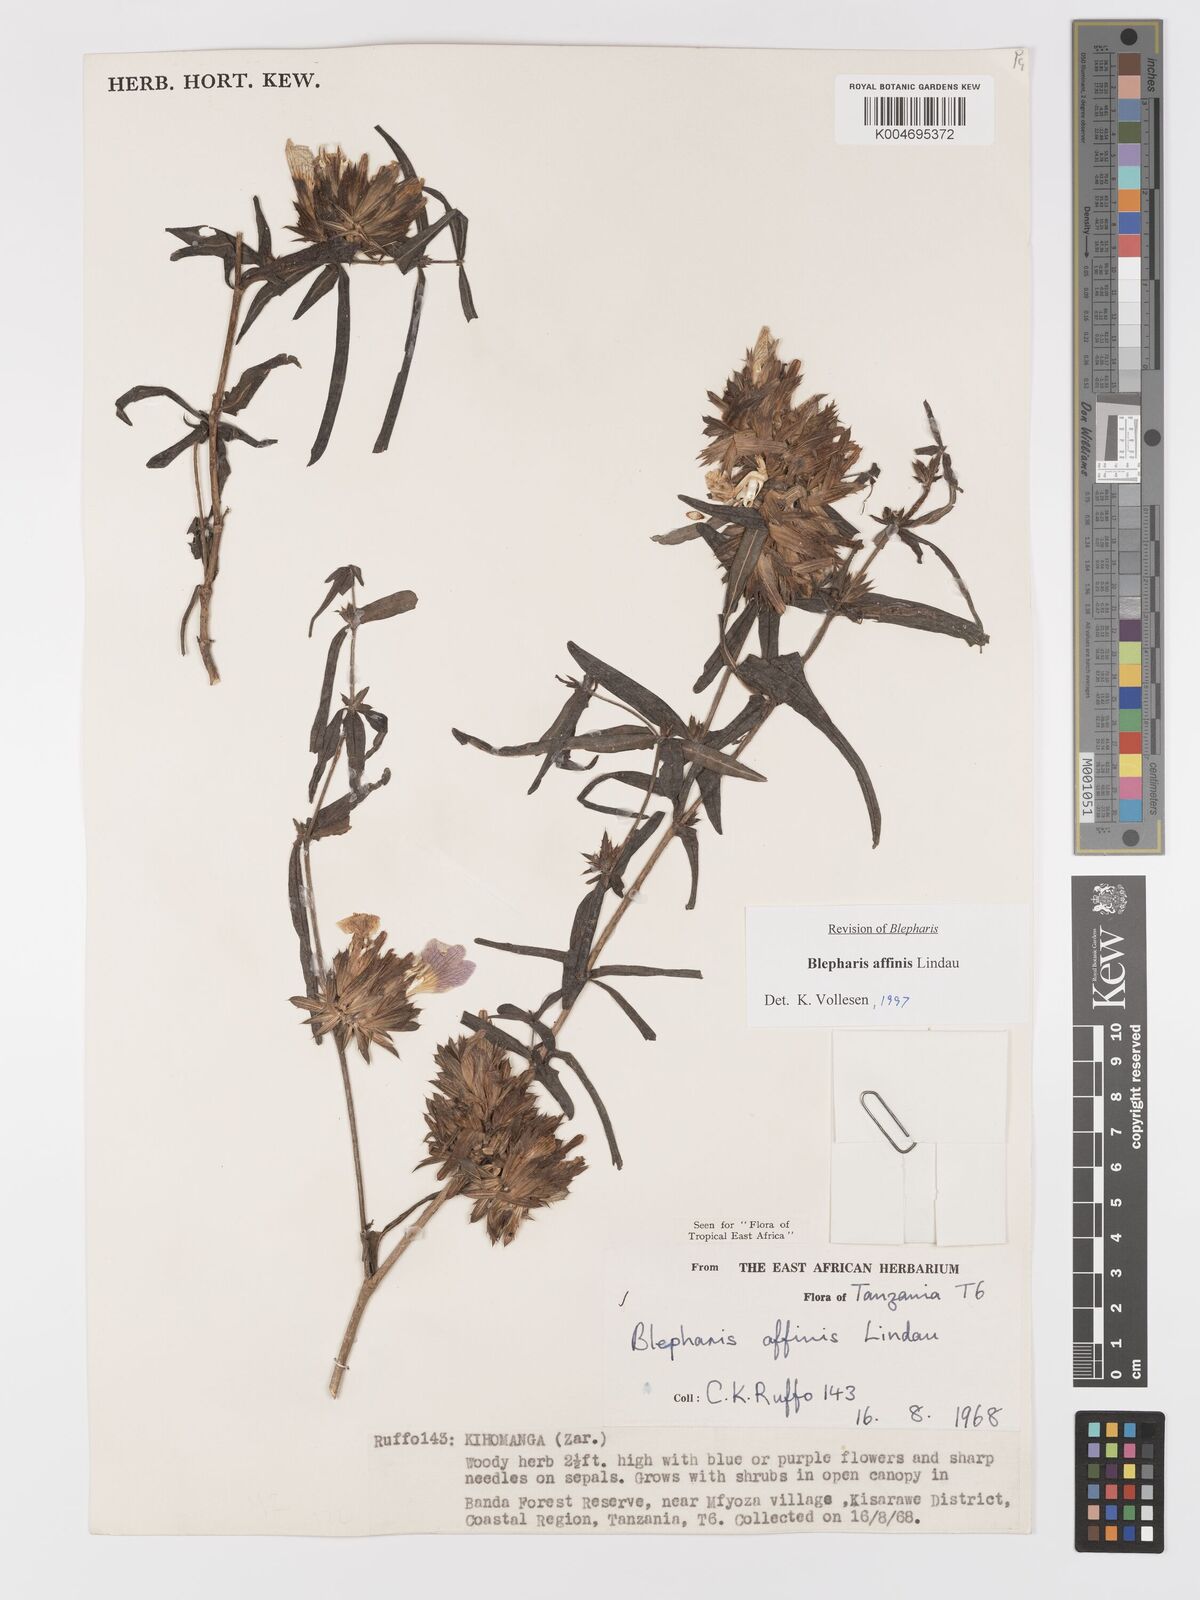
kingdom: Plantae
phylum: Tracheophyta
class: Magnoliopsida
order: Lamiales
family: Acanthaceae
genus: Blepharis
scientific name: Blepharis affinis
